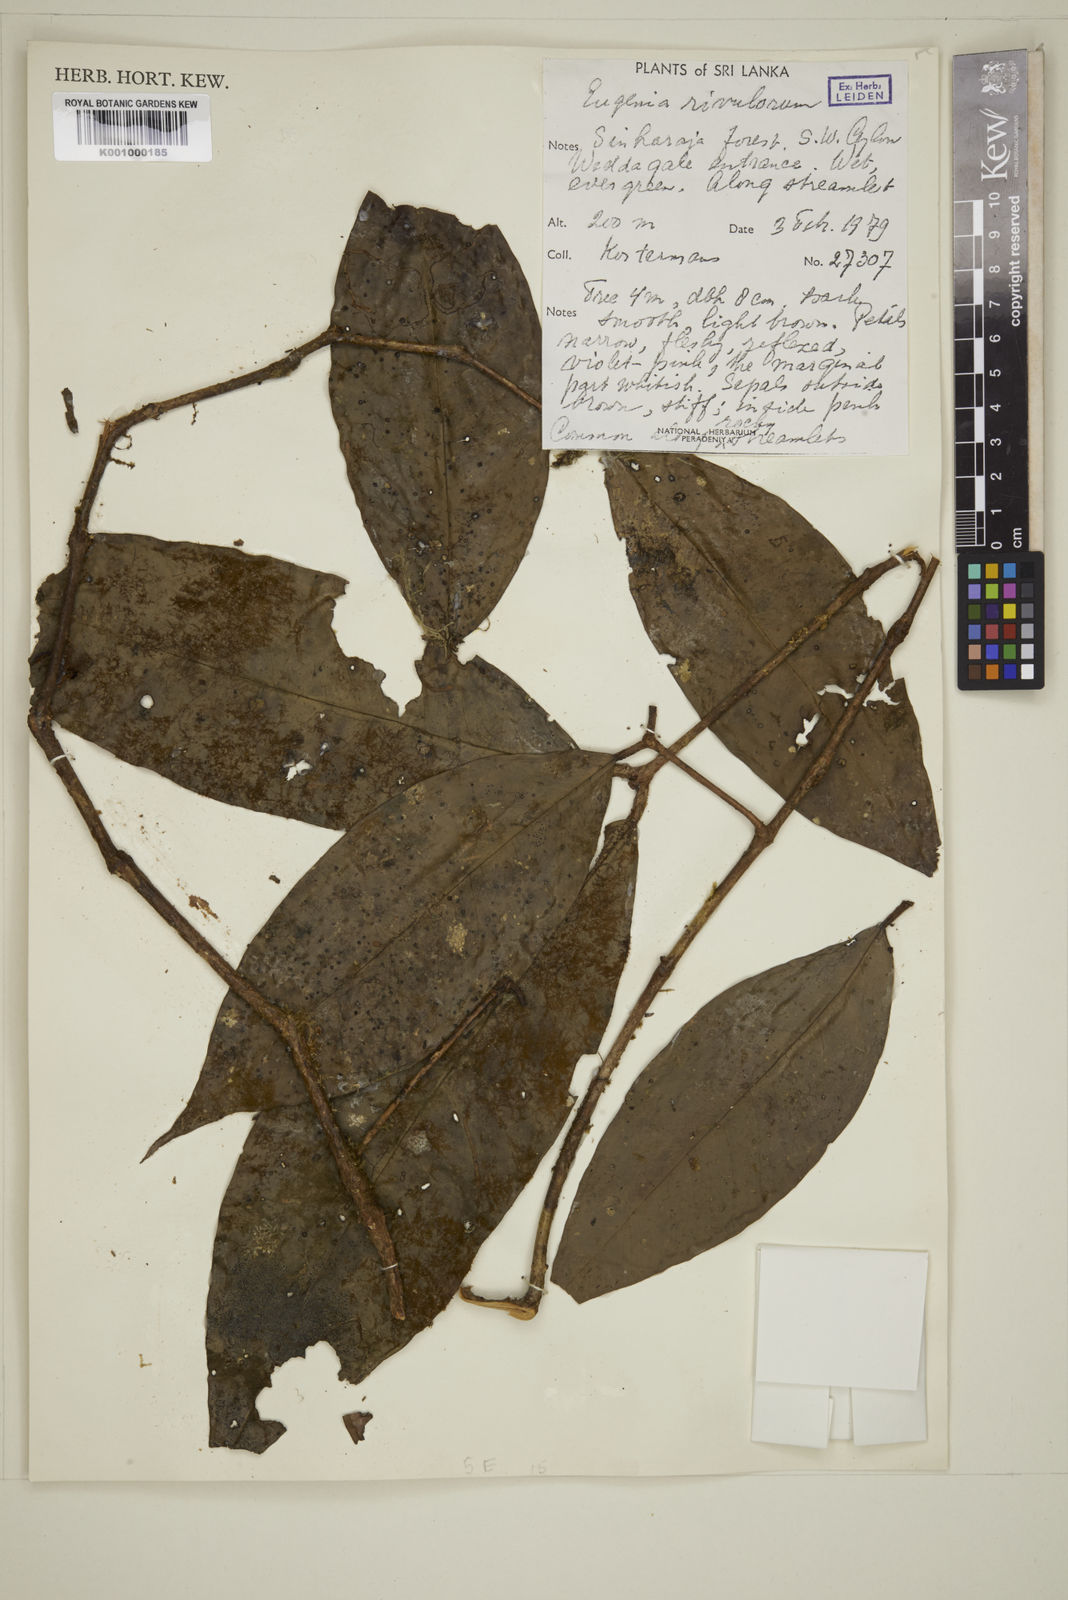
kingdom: Plantae
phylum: Tracheophyta
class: Magnoliopsida
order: Myrtales
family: Myrtaceae
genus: Eugenia
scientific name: Eugenia rivulorum
